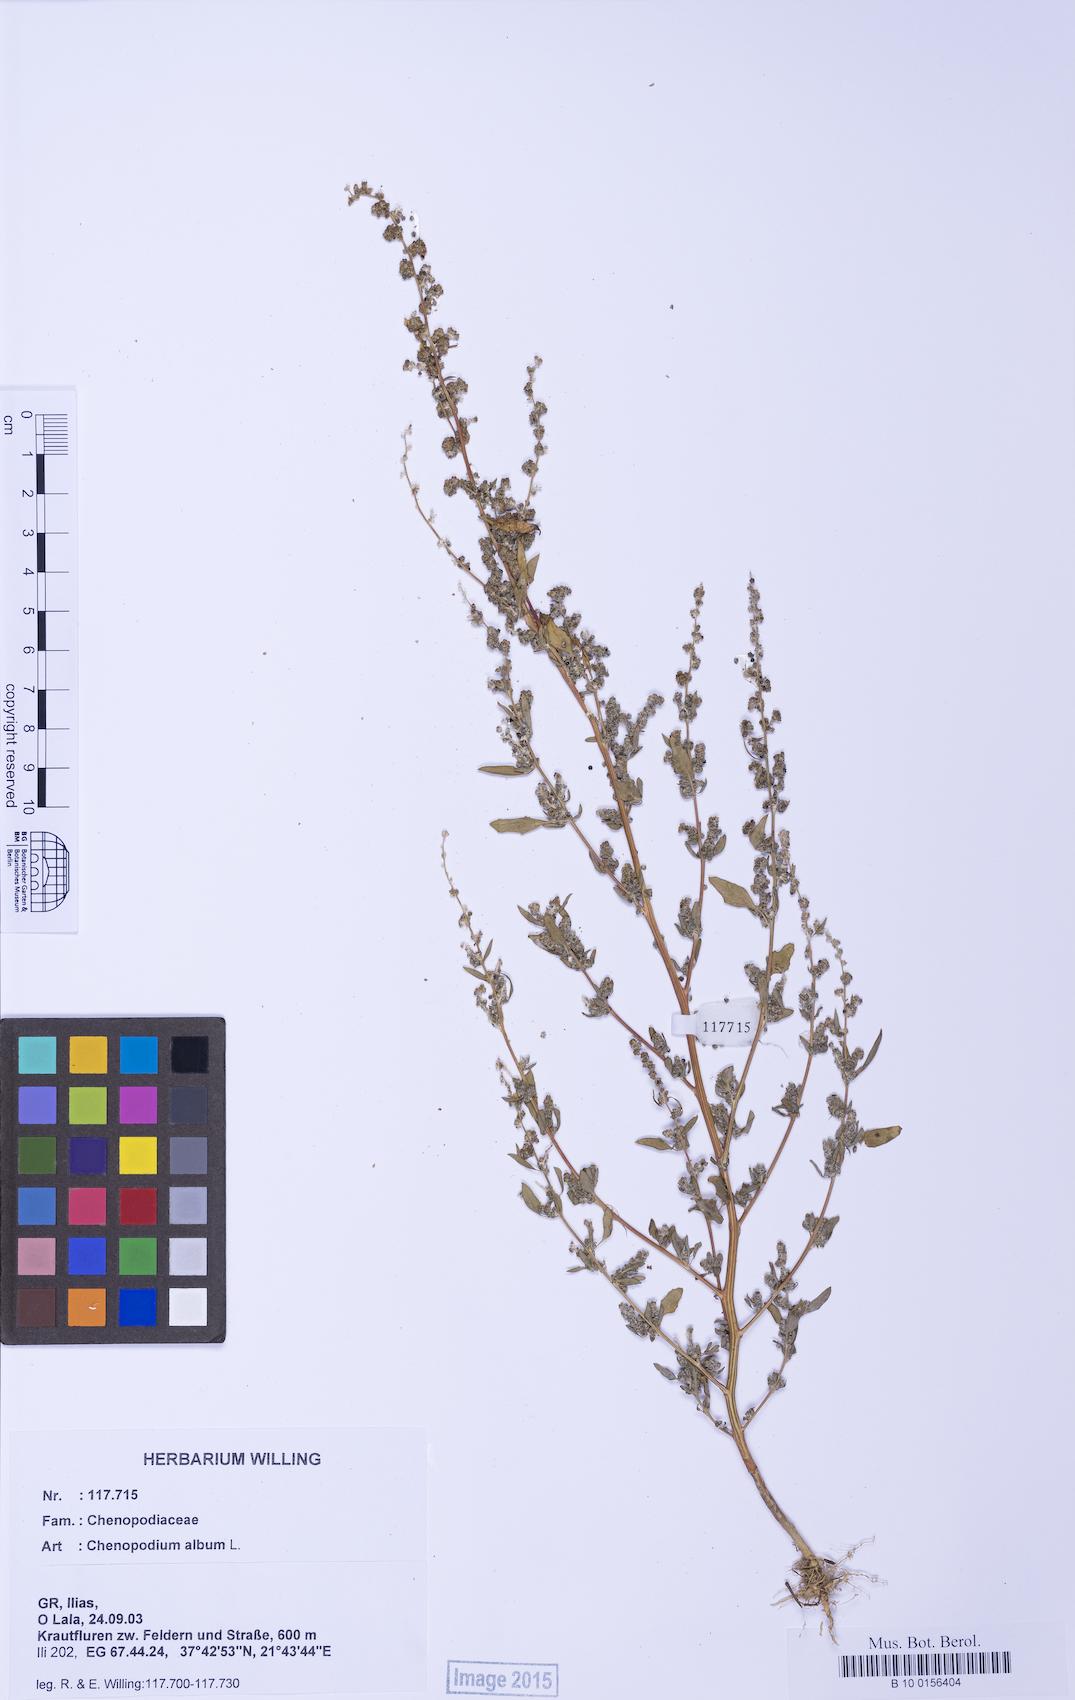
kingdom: Plantae
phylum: Tracheophyta
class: Magnoliopsida
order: Caryophyllales
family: Amaranthaceae
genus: Chenopodium
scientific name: Chenopodium album
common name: Fat-hen
